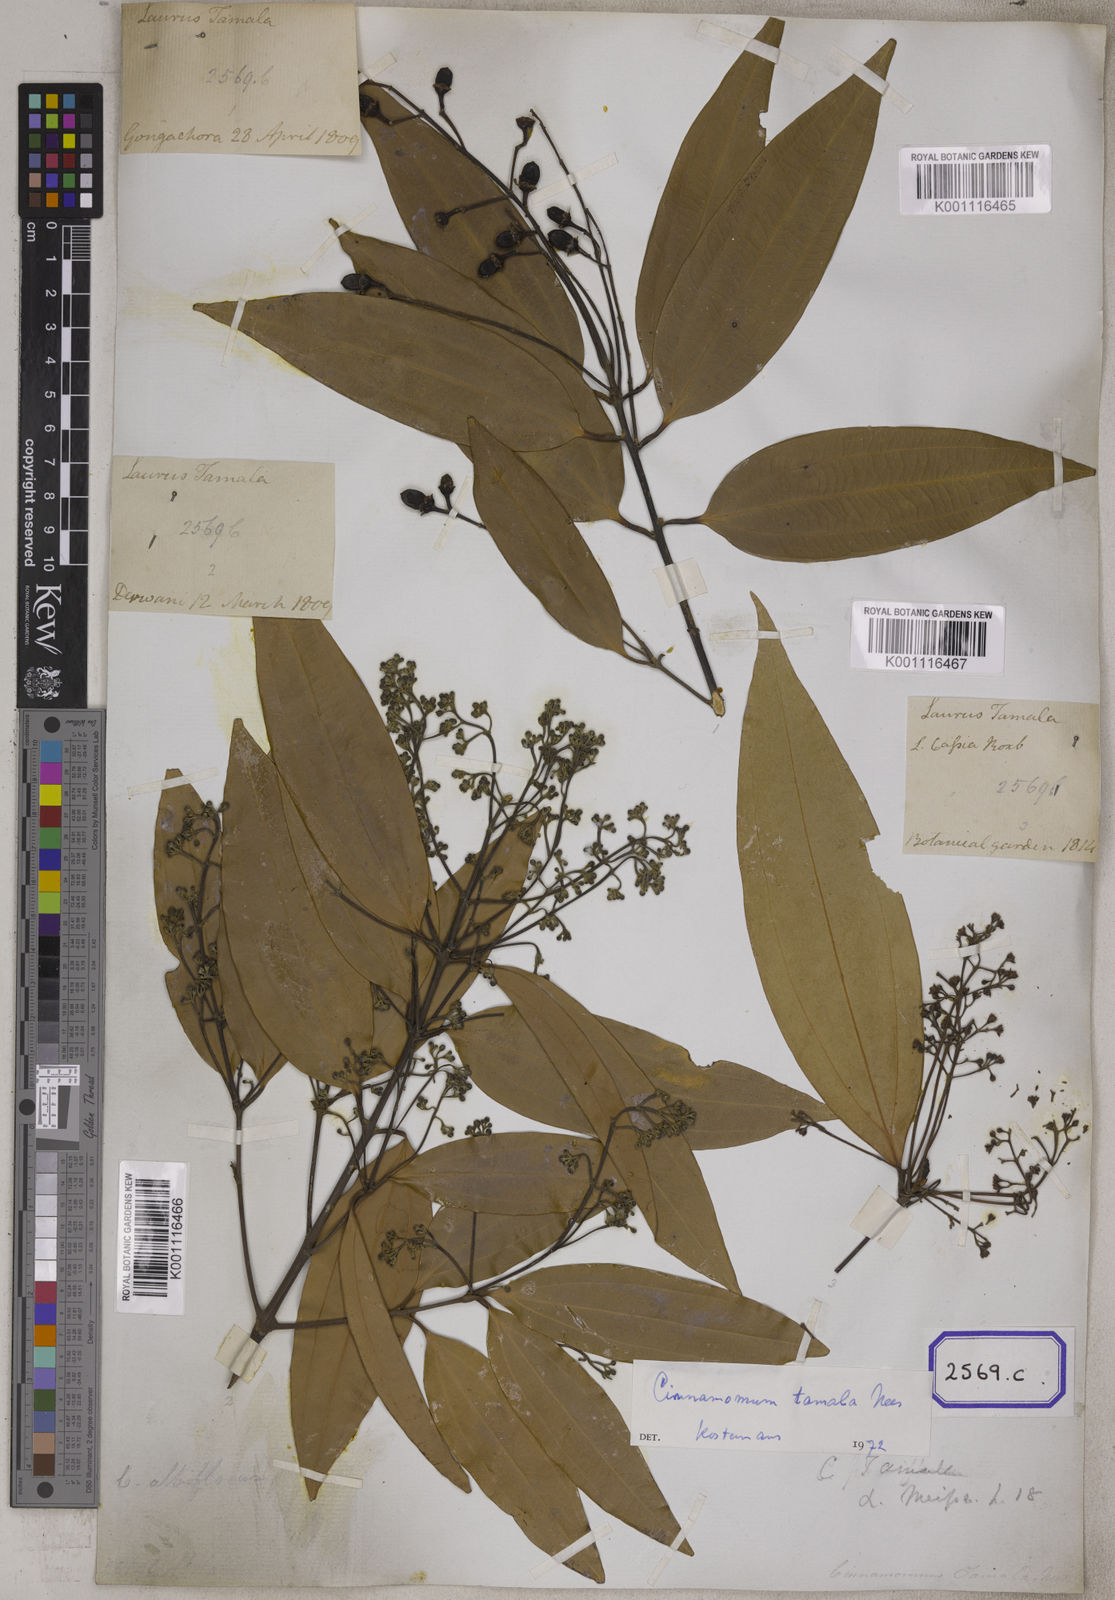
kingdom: Plantae
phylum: Tracheophyta
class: Magnoliopsida
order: Laurales
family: Lauraceae
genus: Cinnamomum
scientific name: Cinnamomum tamala
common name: Indian bay leaves
